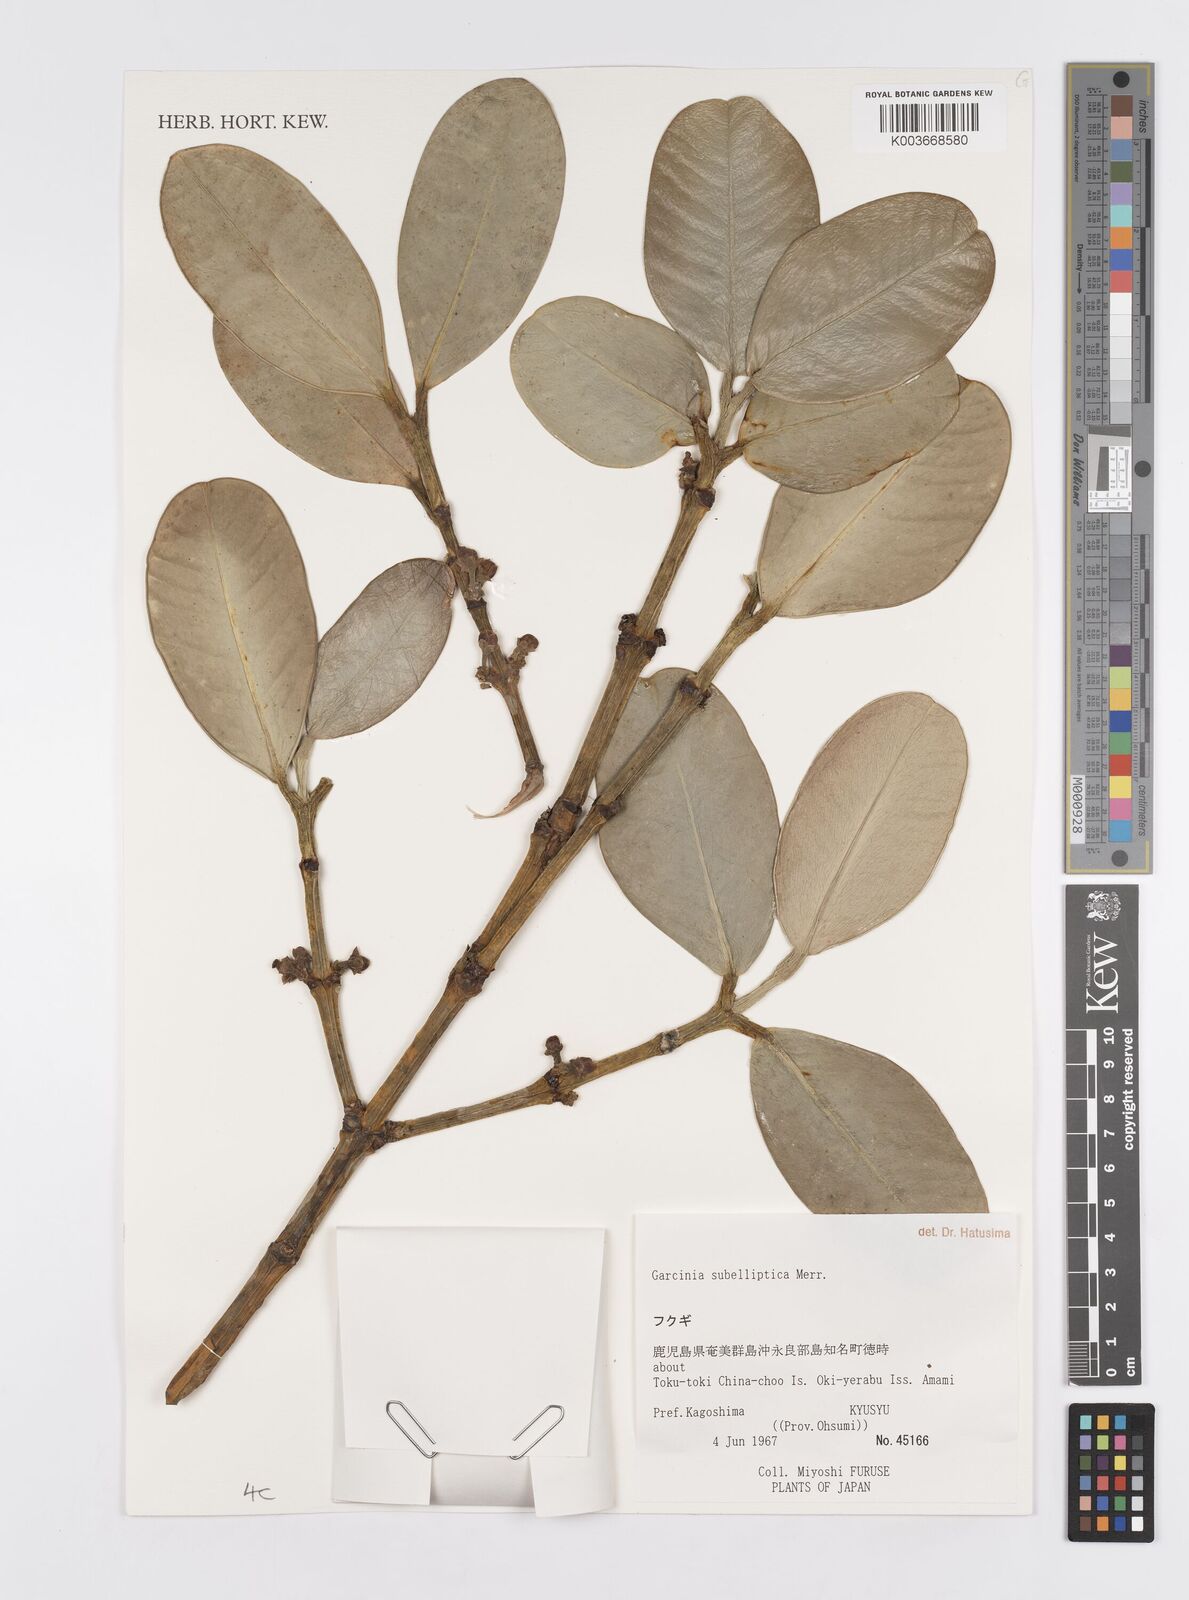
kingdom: Plantae
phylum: Tracheophyta
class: Magnoliopsida
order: Malpighiales
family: Clusiaceae
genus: Garcinia
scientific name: Garcinia subelliptica
